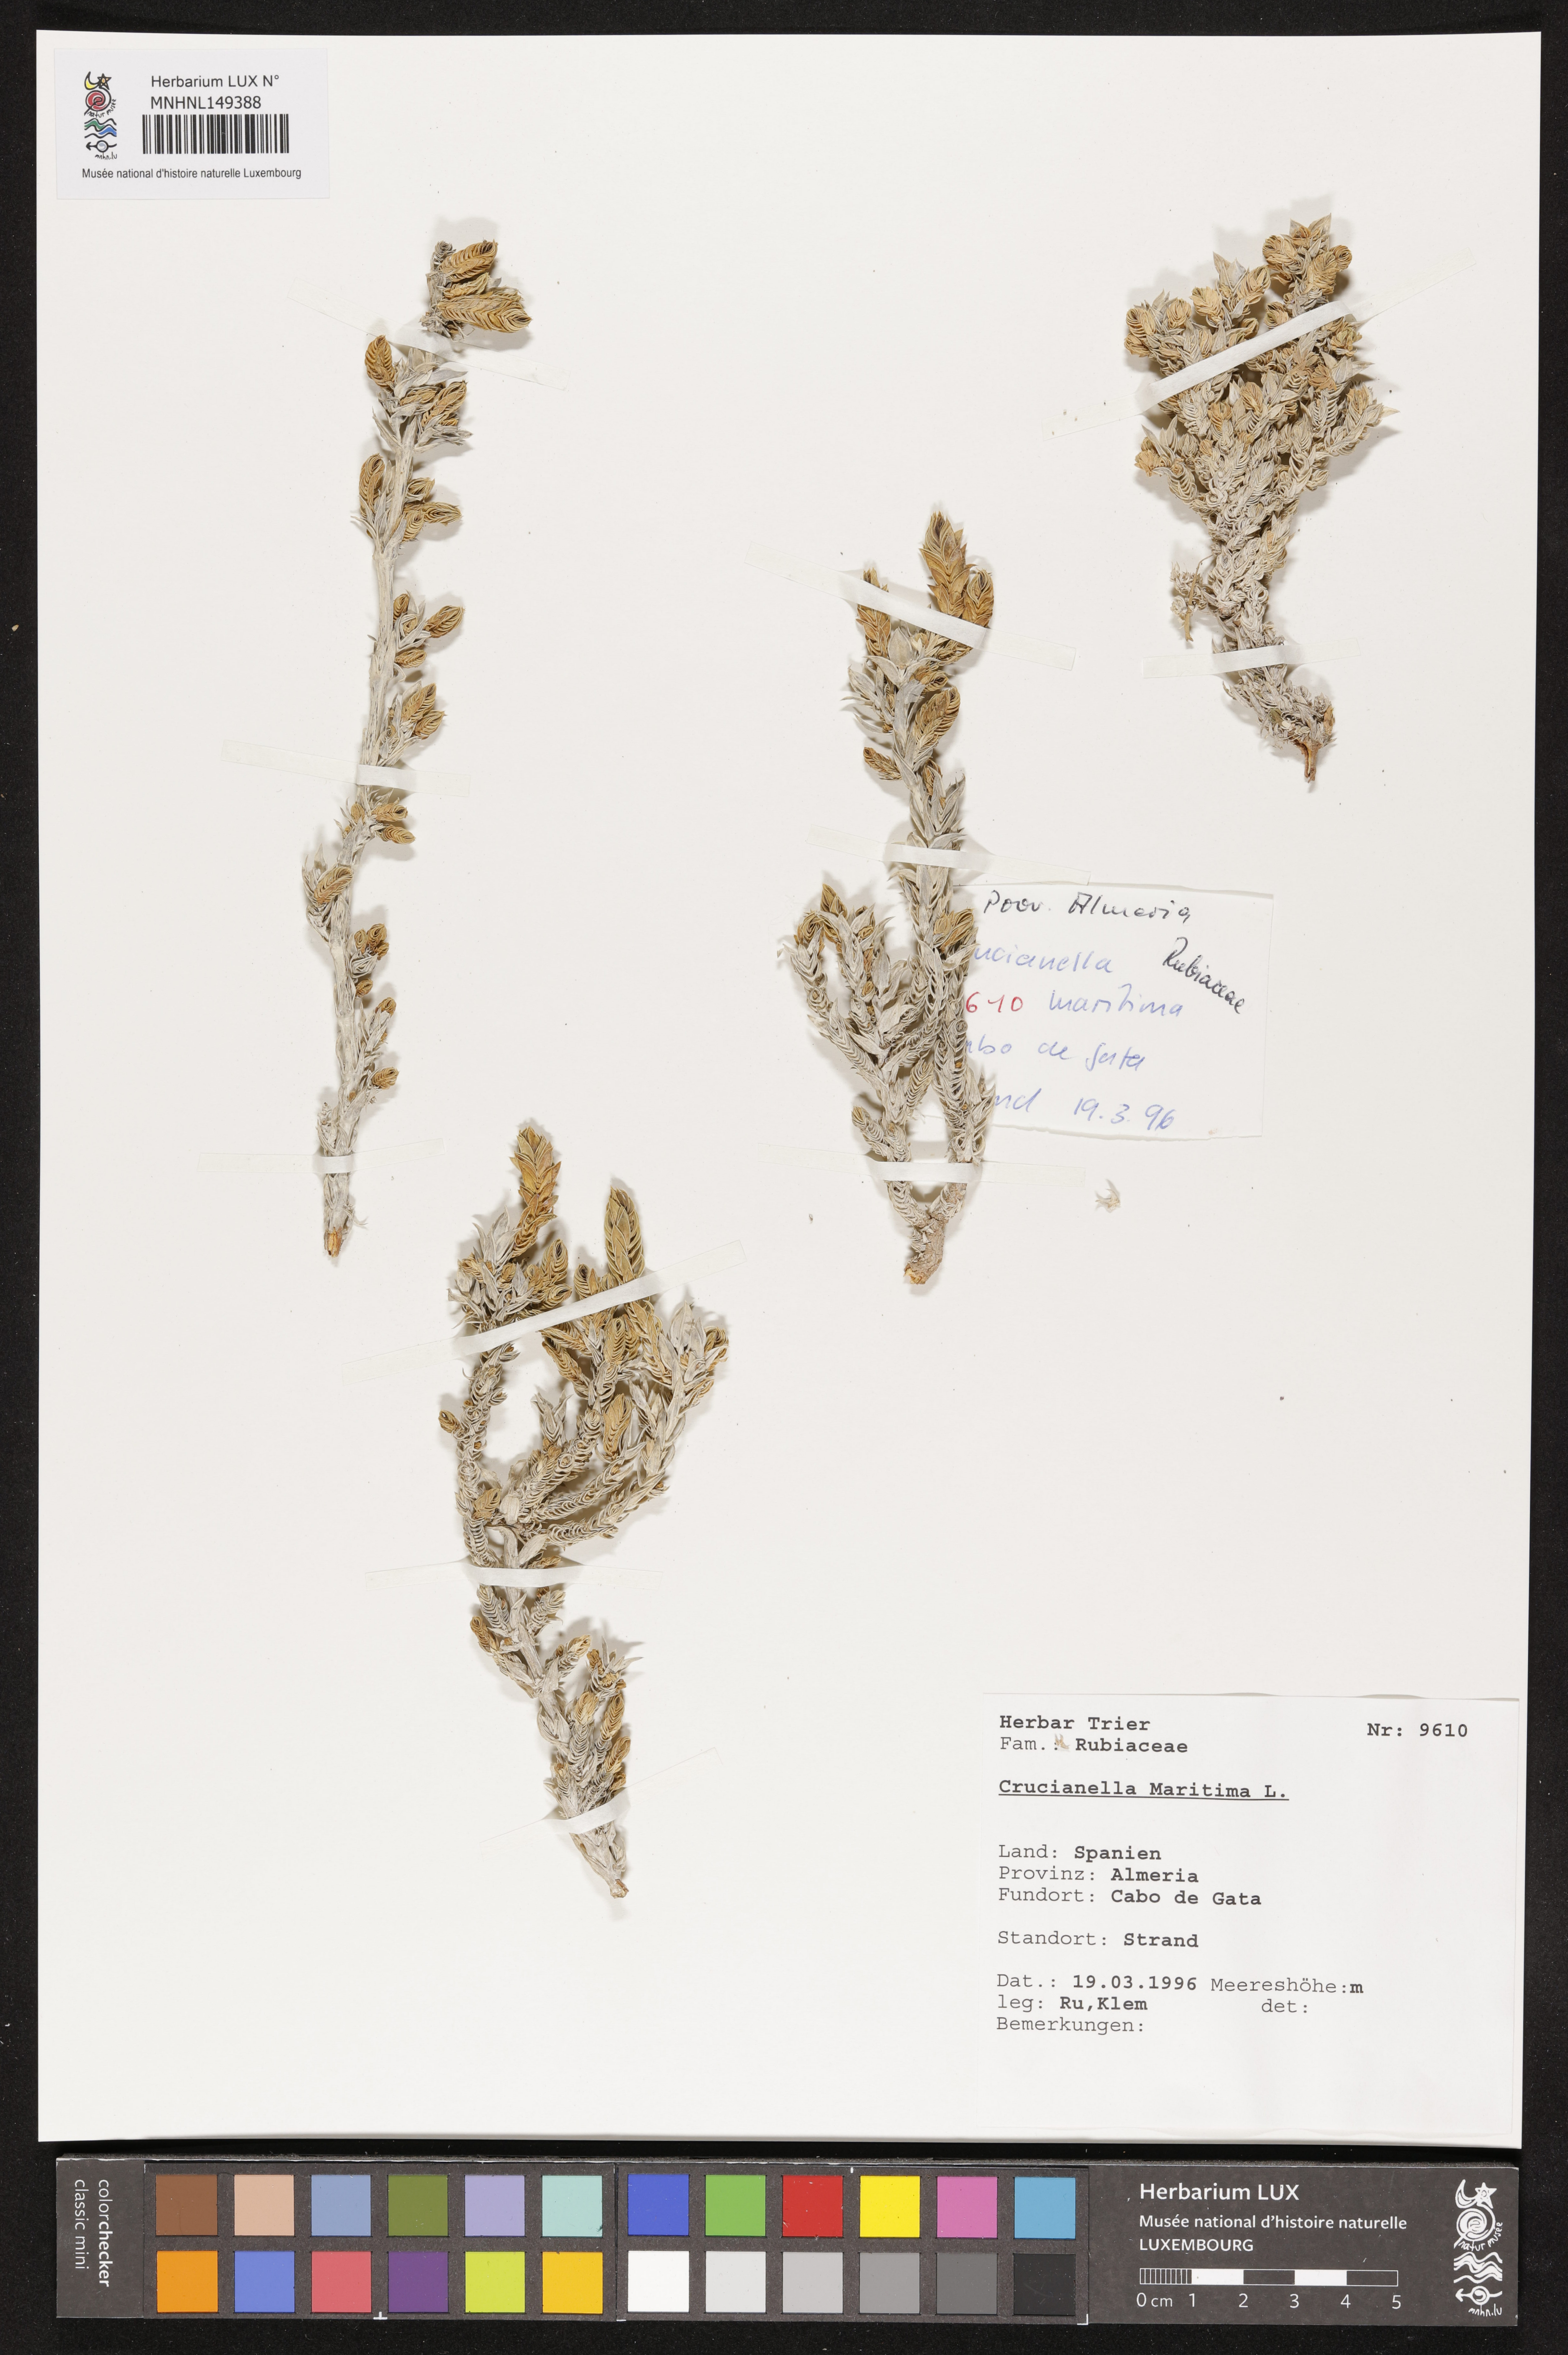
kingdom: Plantae
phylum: Tracheophyta
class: Magnoliopsida
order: Gentianales
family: Rubiaceae
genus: Crucianella
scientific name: Crucianella maritima
